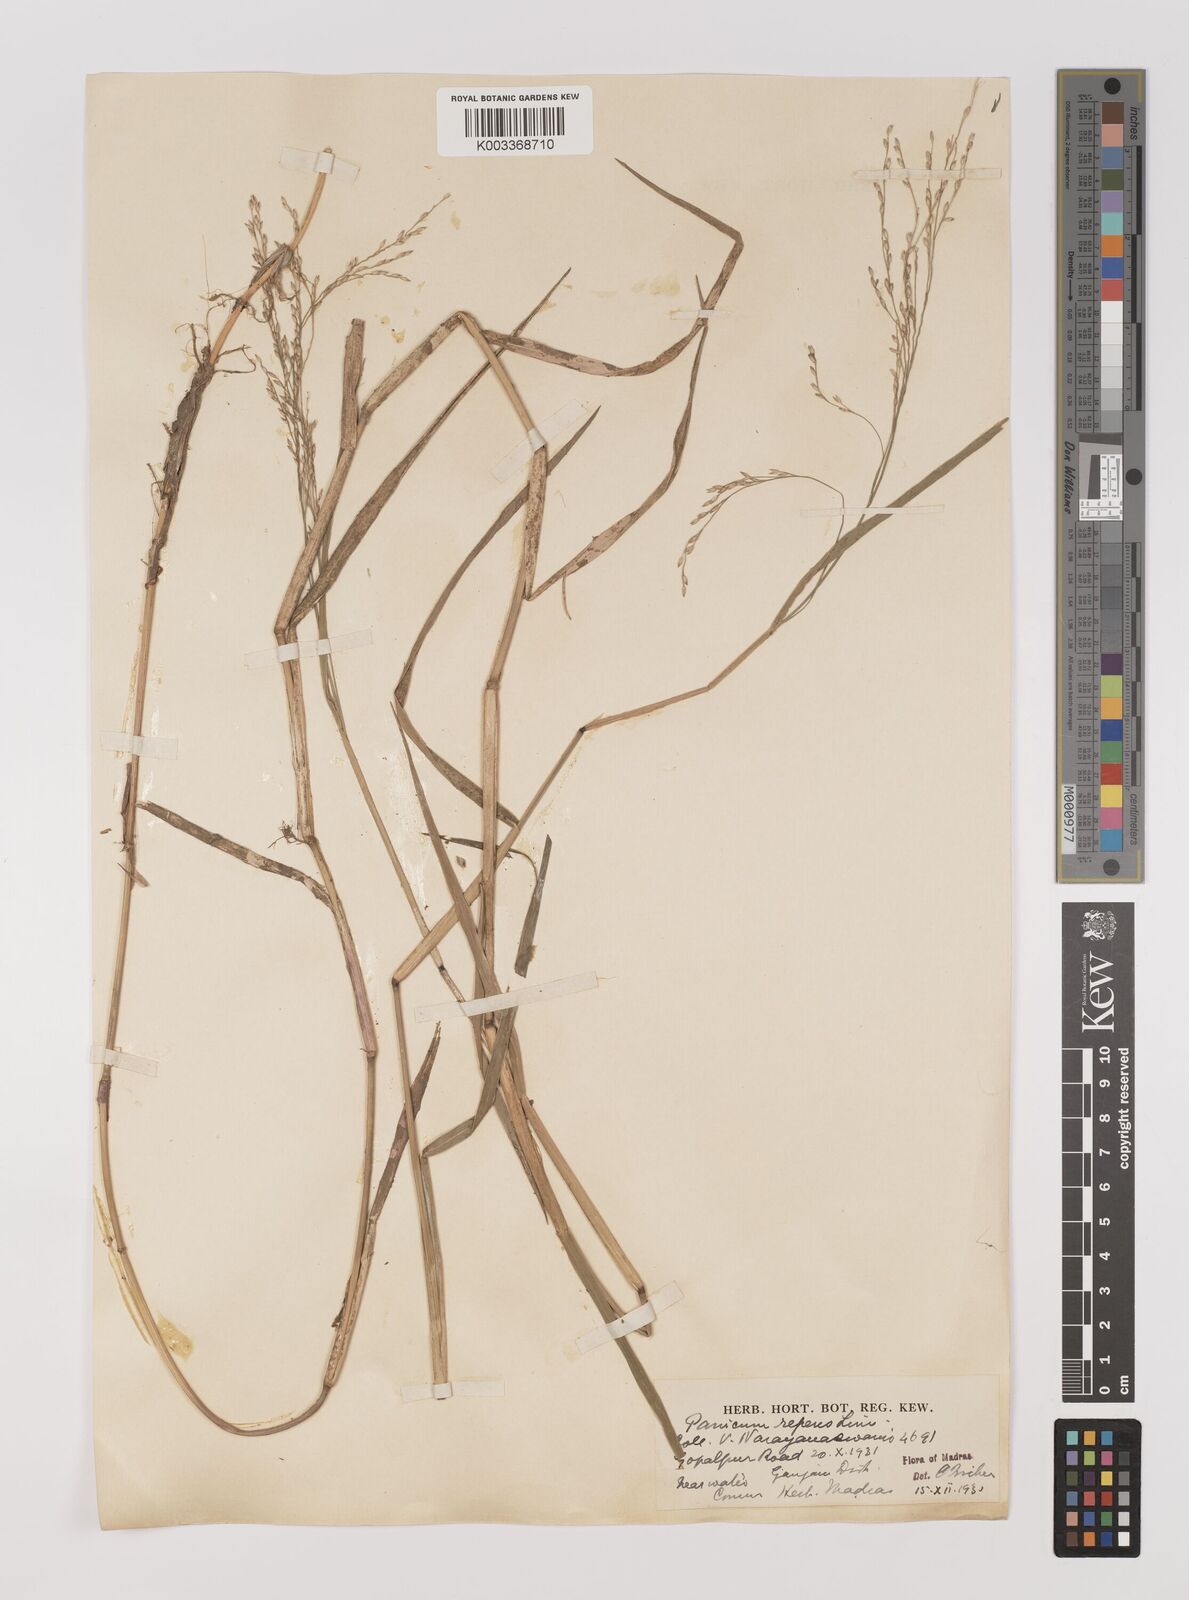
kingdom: Plantae
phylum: Tracheophyta
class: Liliopsida
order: Poales
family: Poaceae
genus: Panicum
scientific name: Panicum repens
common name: Torpedo grass
